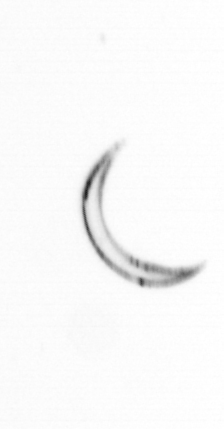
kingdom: Chromista
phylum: Ochrophyta
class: Bacillariophyceae
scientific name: Bacillariophyceae
